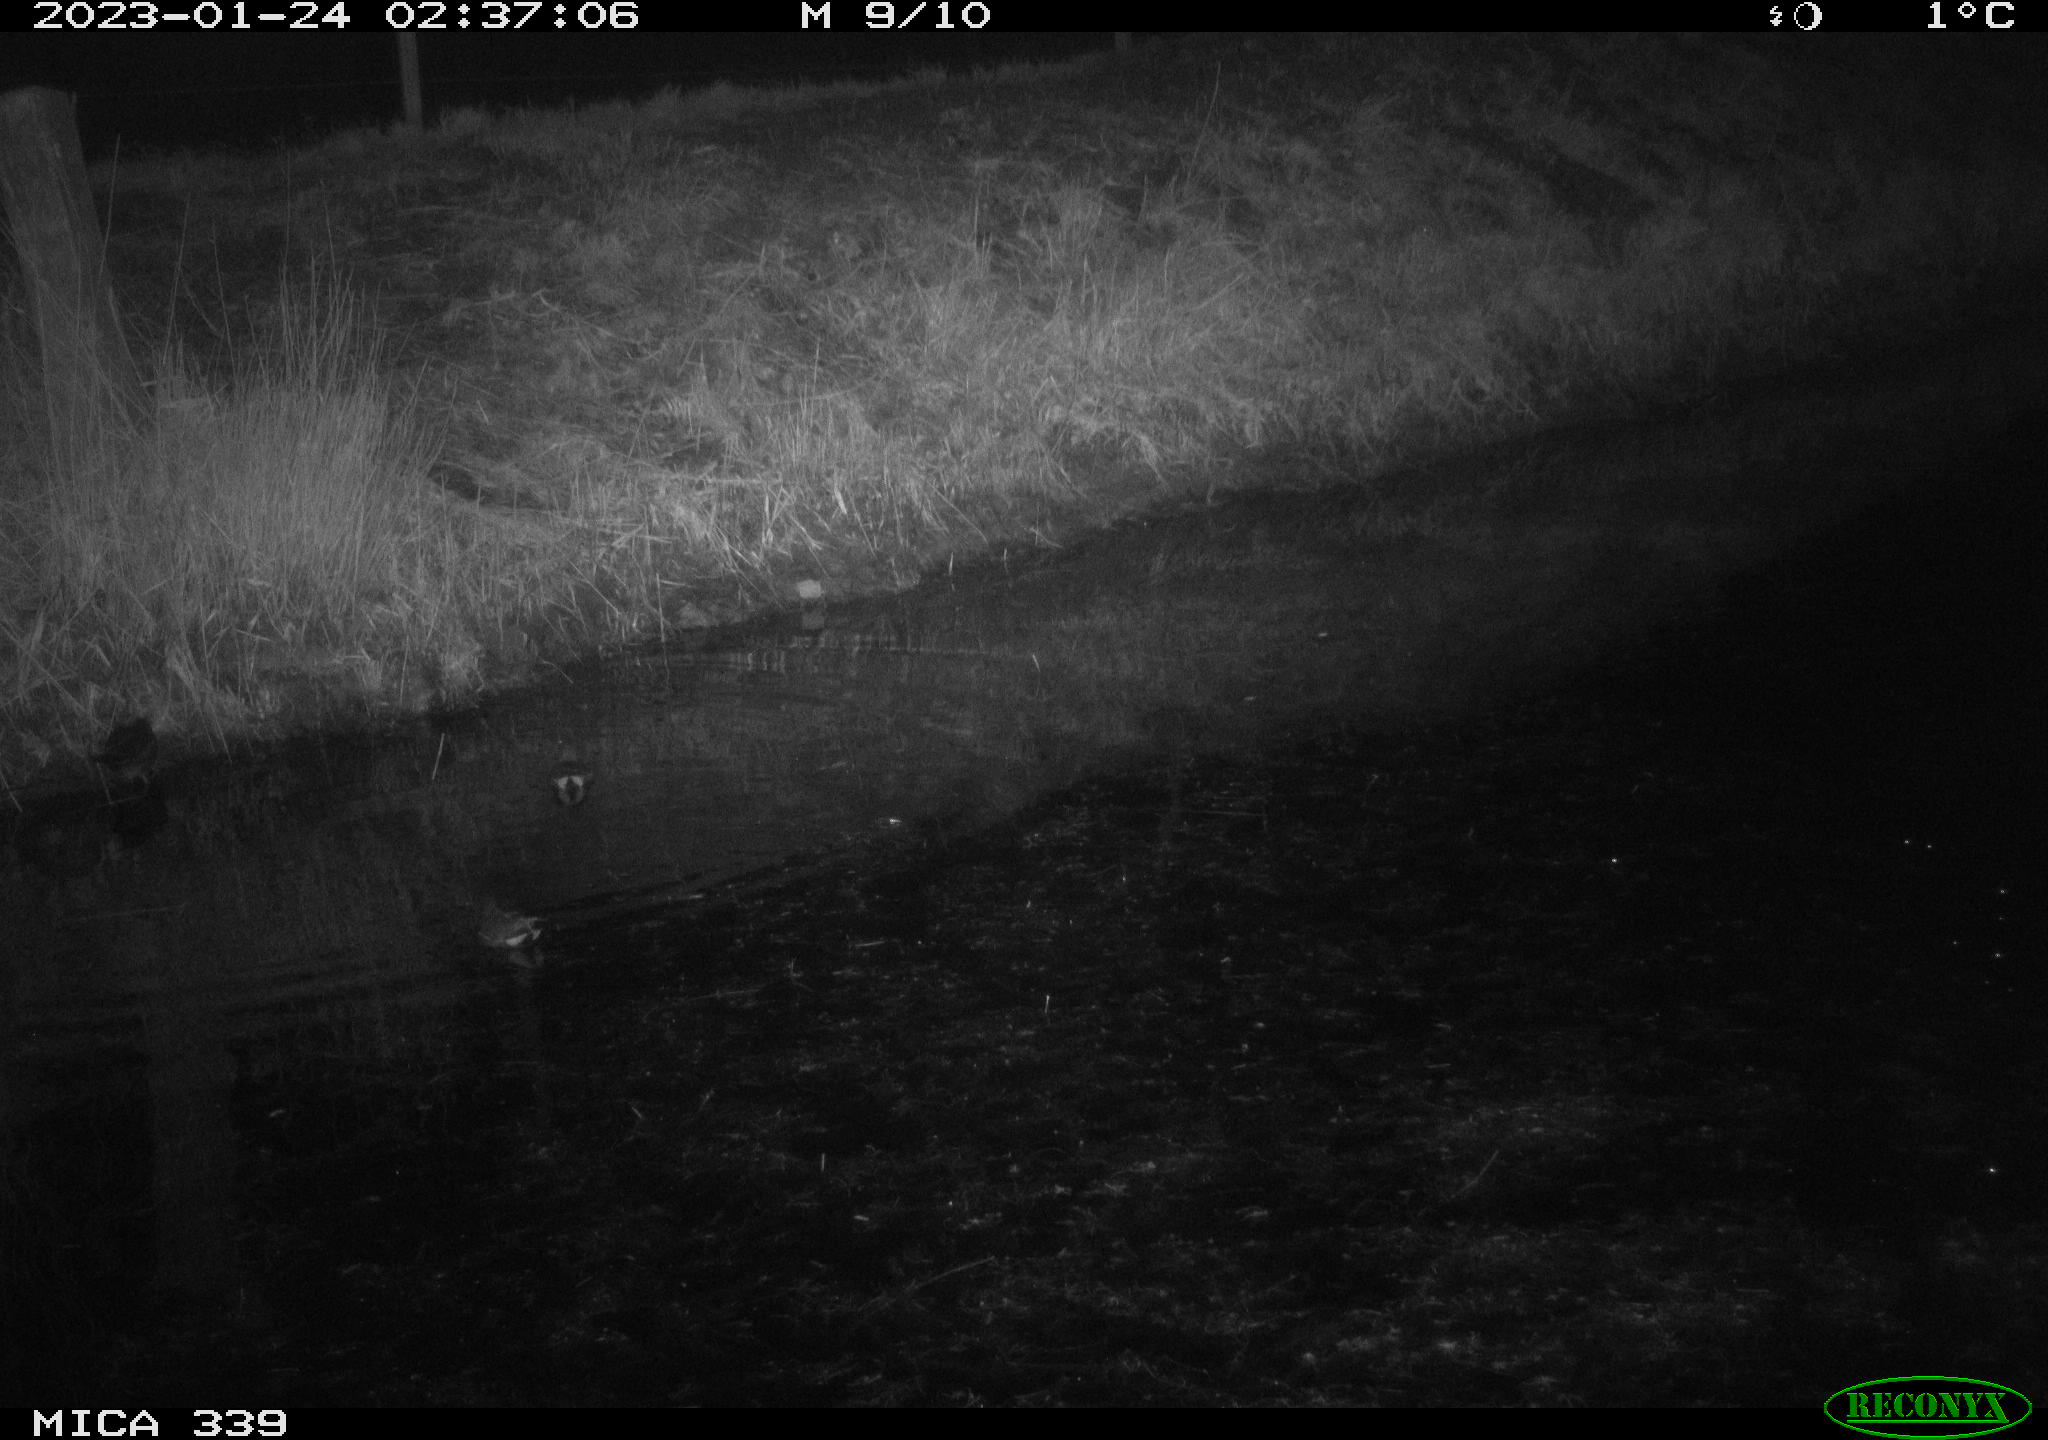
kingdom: Animalia
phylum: Chordata
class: Aves
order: Gruiformes
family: Rallidae
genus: Gallinula
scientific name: Gallinula chloropus
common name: Common moorhen
